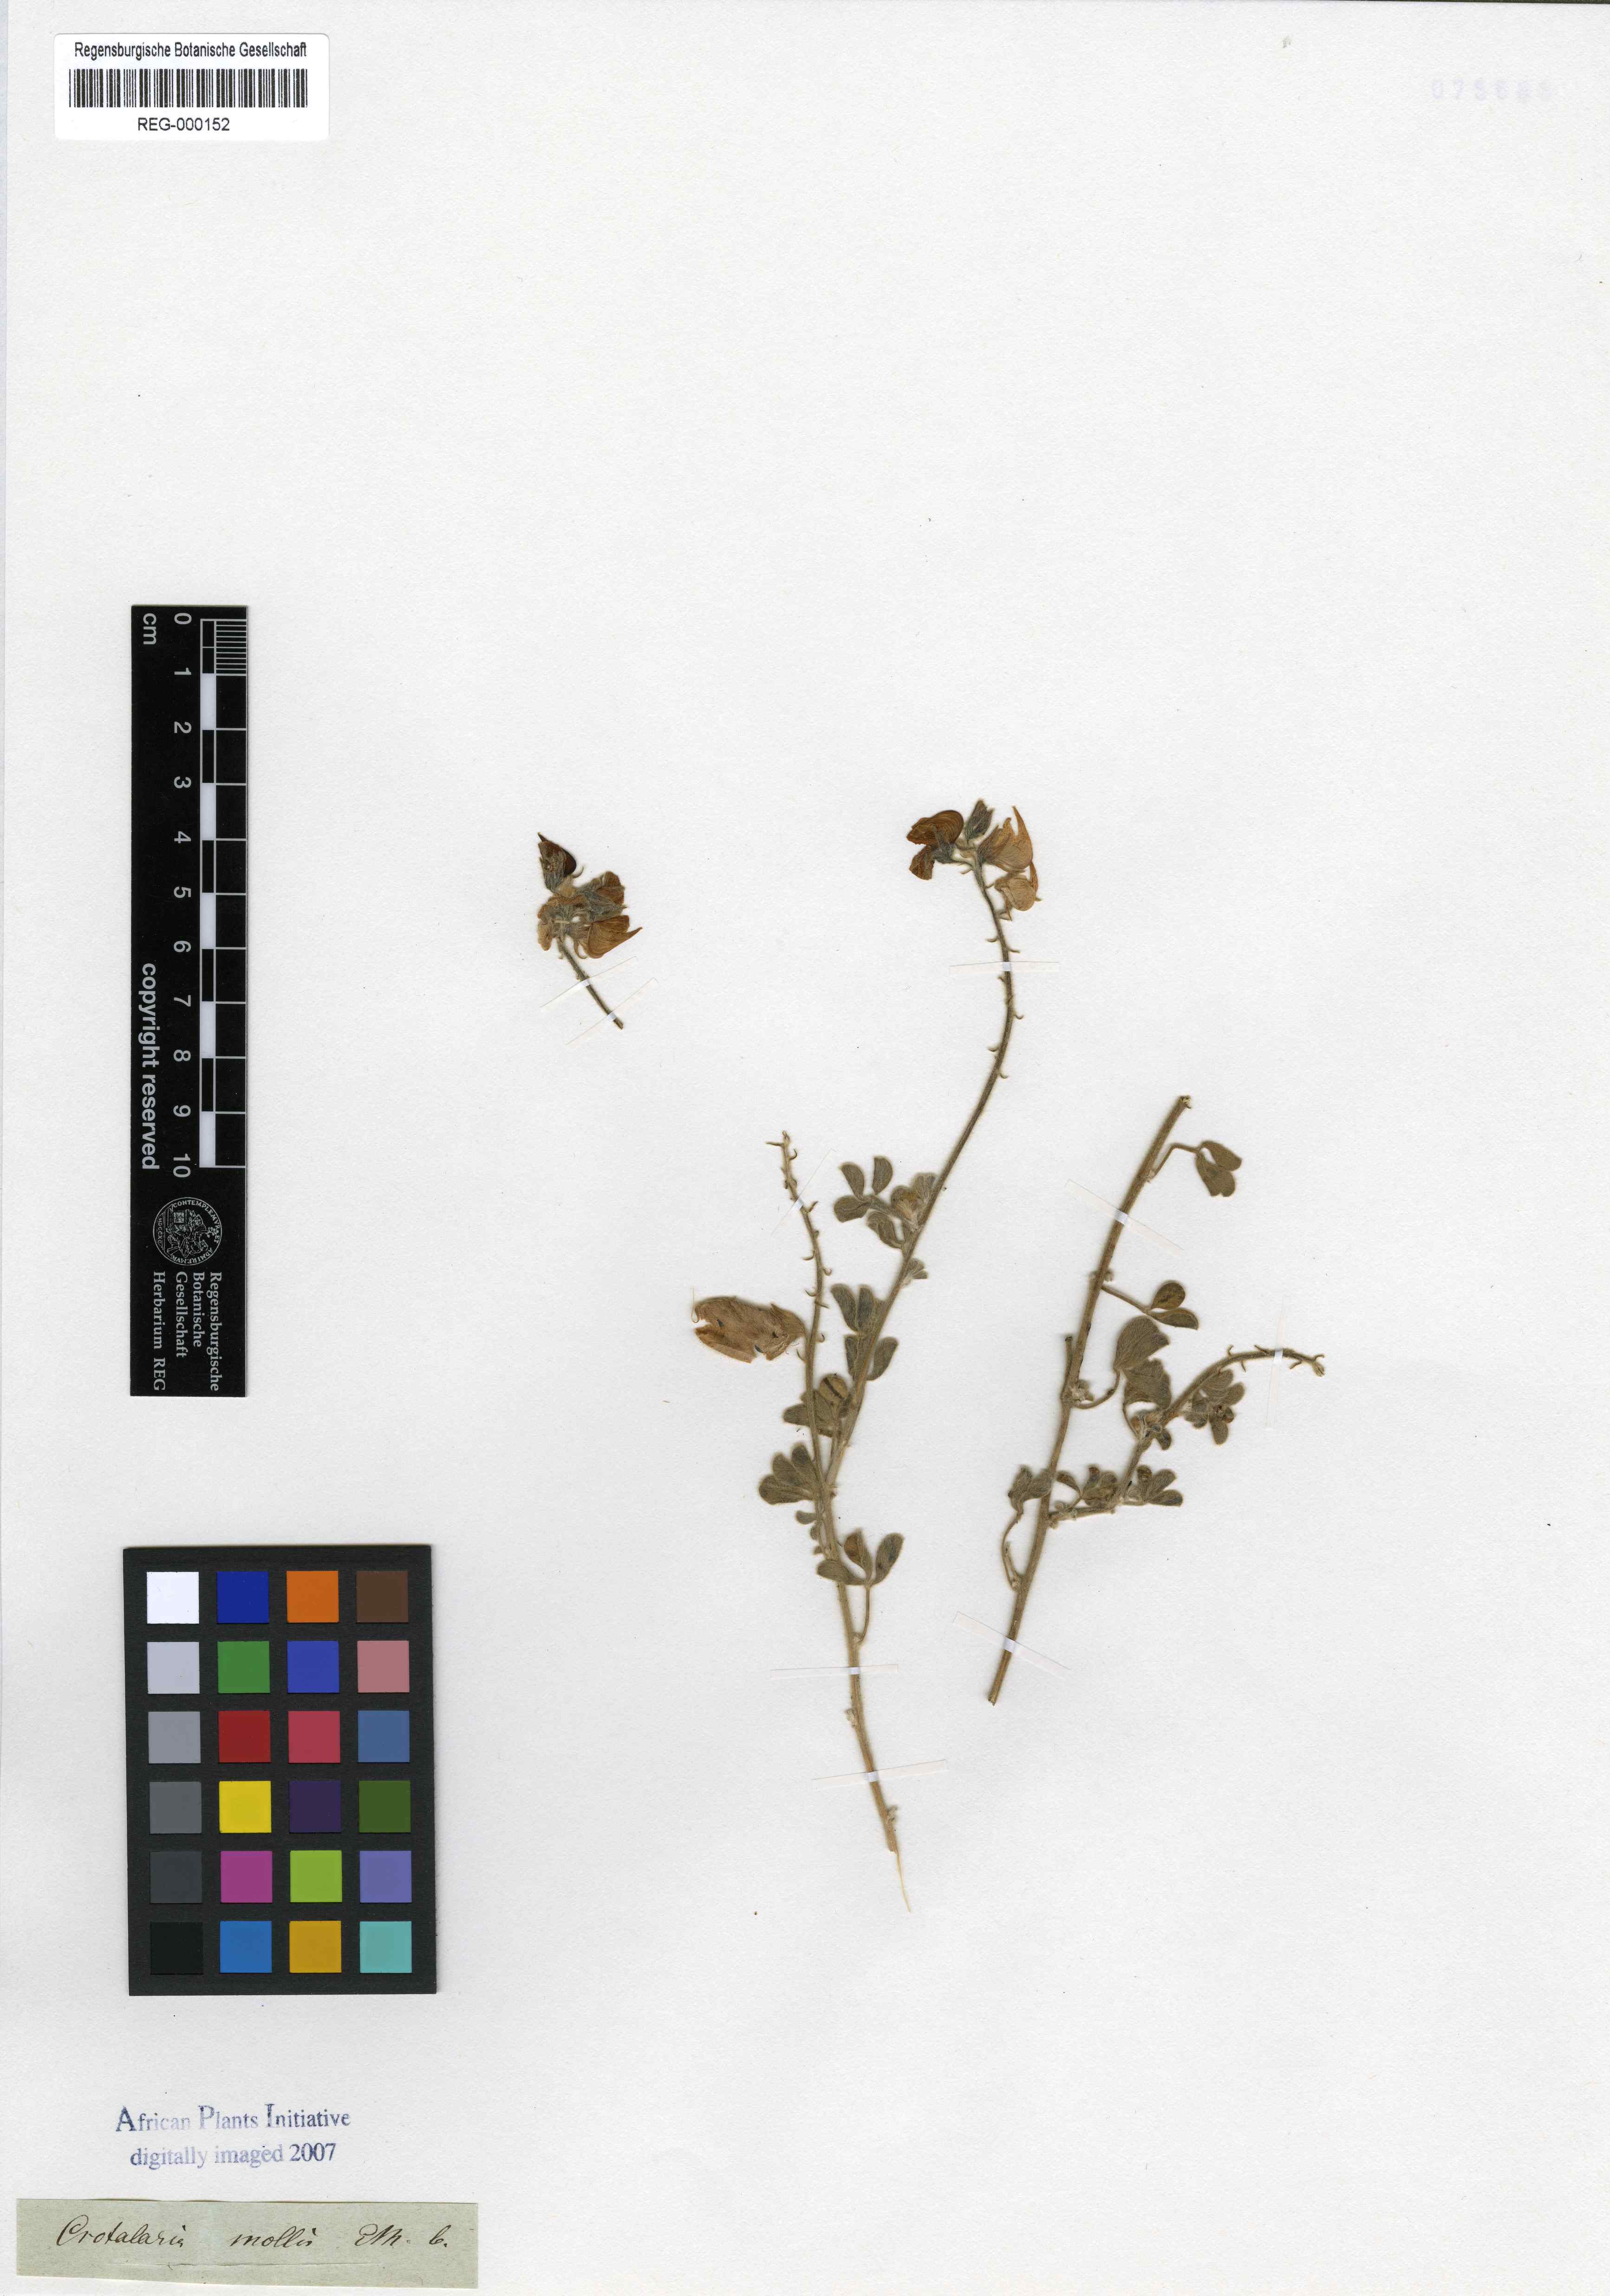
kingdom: Plantae
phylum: Tracheophyta
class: Magnoliopsida
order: Fabales
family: Fabaceae
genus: Crotalaria
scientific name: Crotalaria meyeriana
